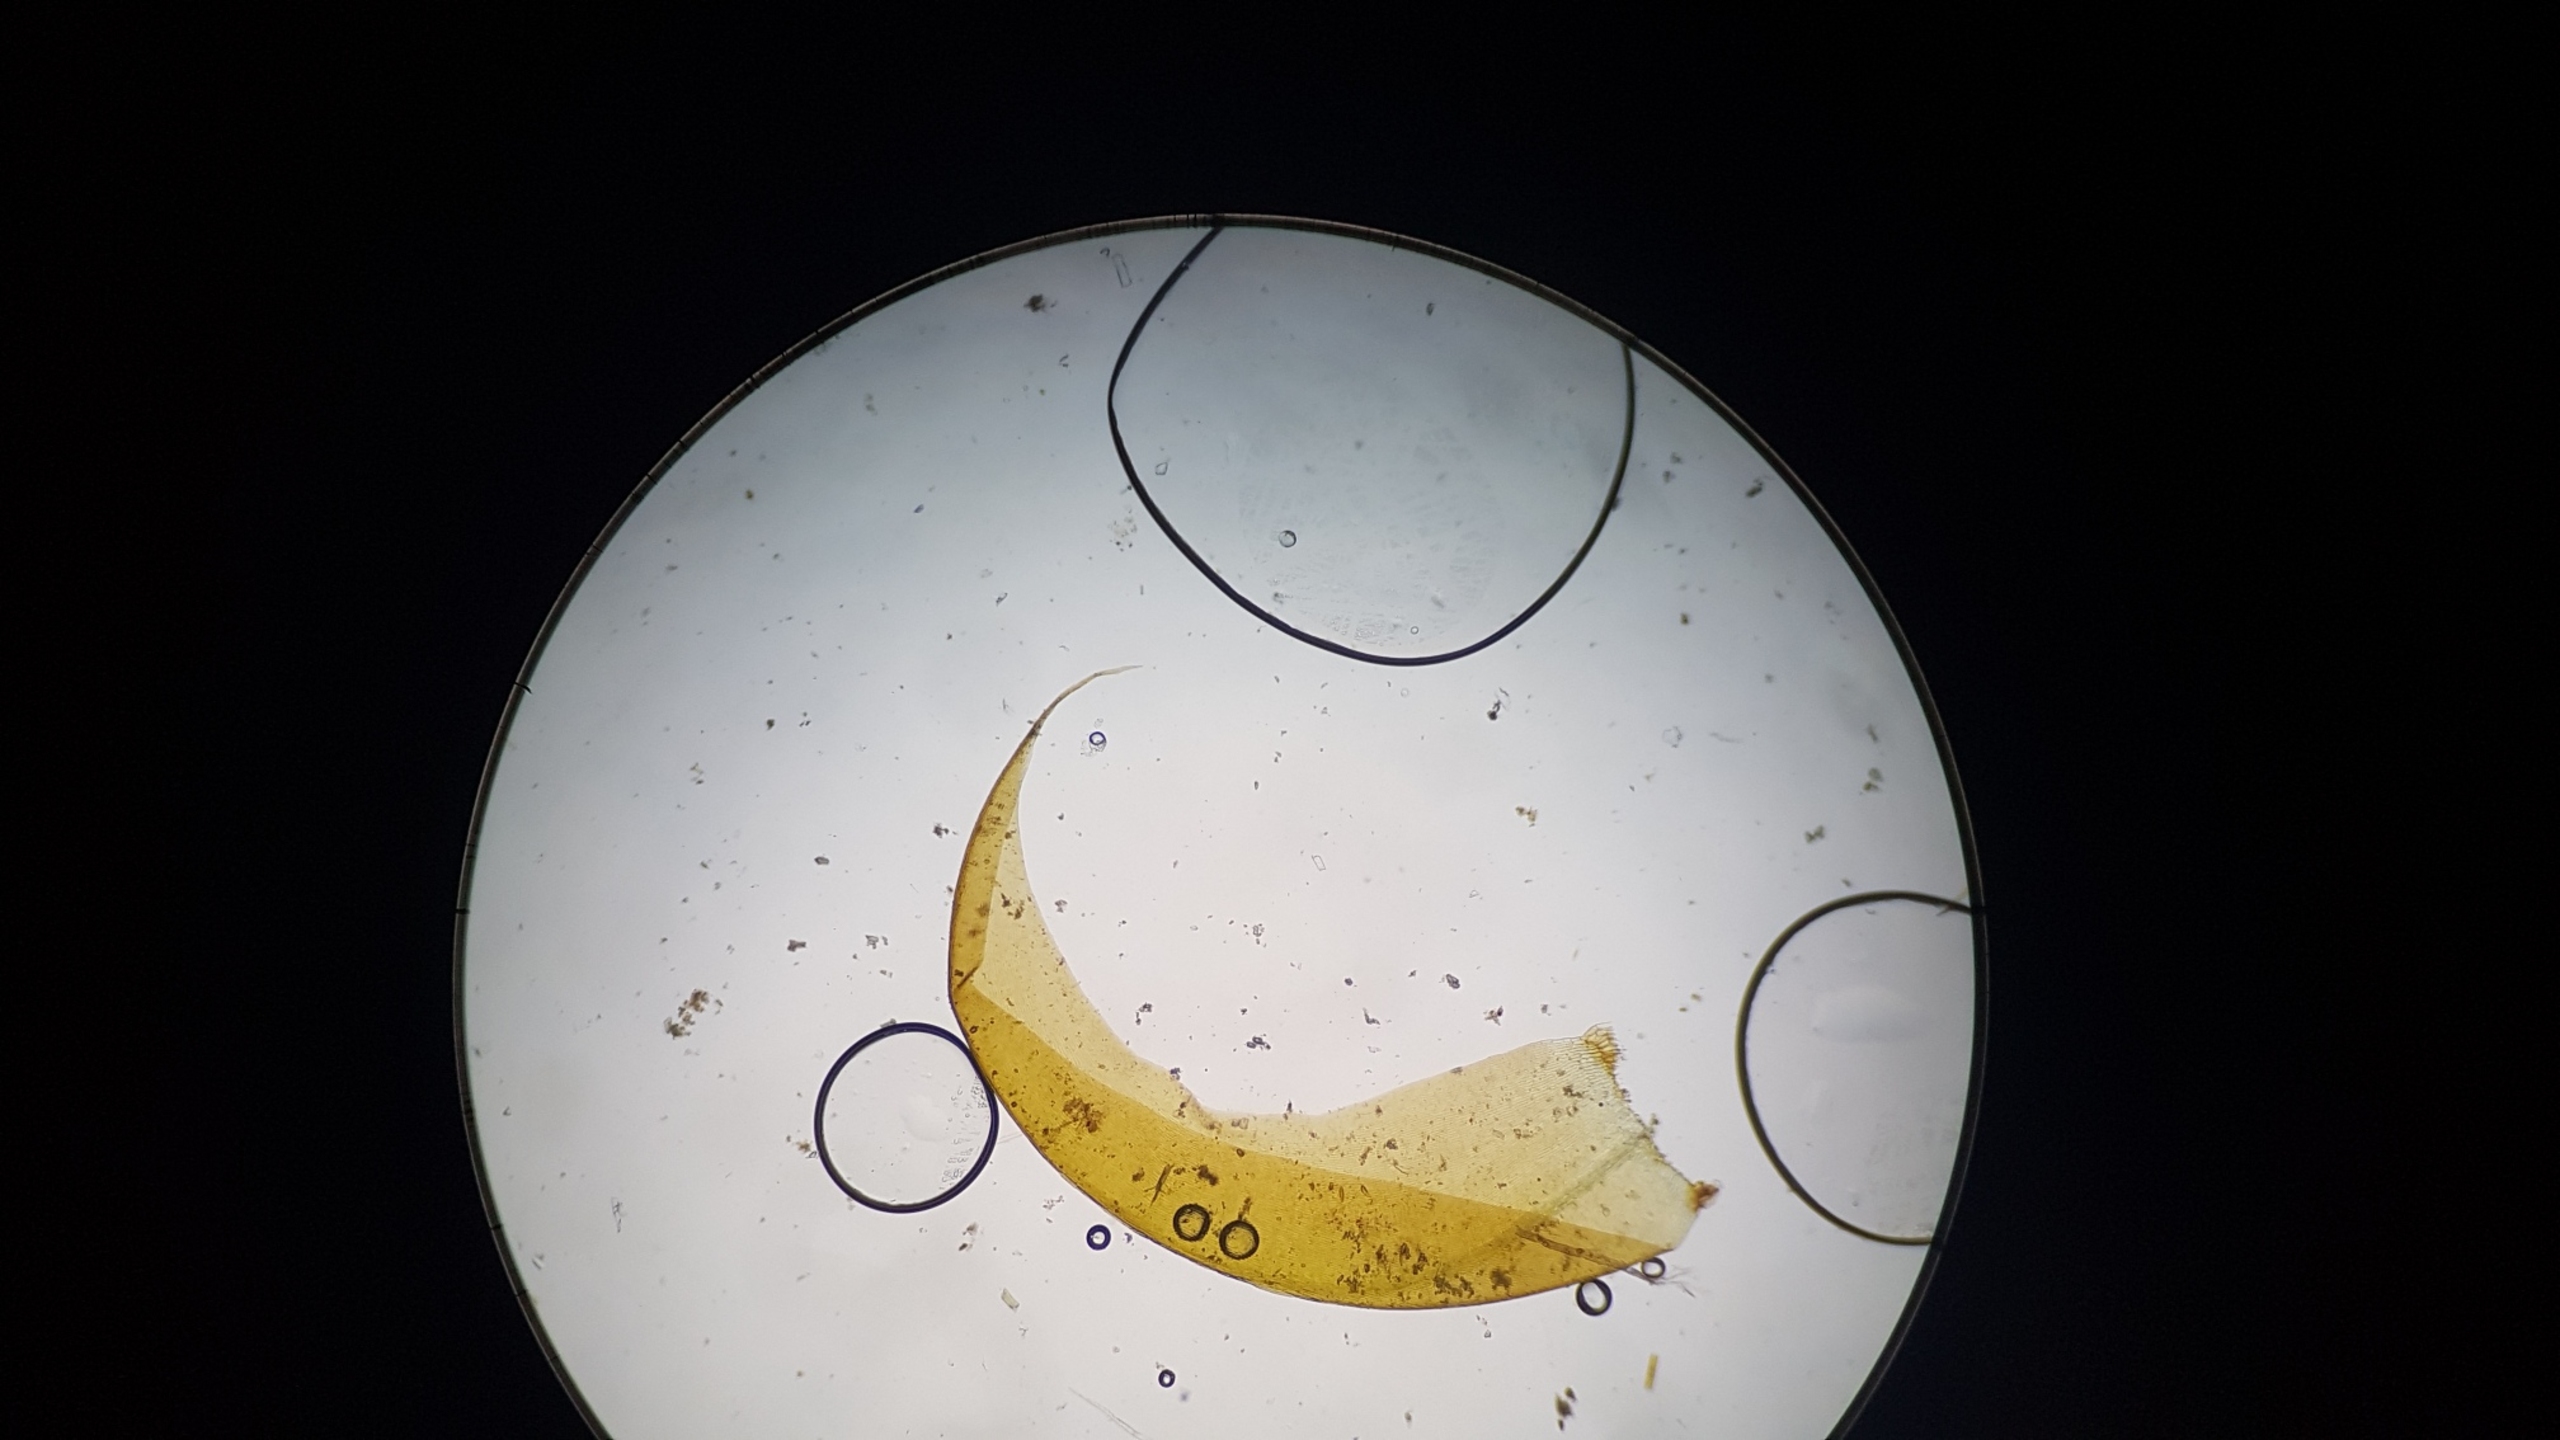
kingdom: Plantae
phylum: Bryophyta
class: Bryopsida
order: Hypnales
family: Amblystegiaceae
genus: Drepanocladus
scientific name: Drepanocladus lycopodioides
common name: Blød seglmos
